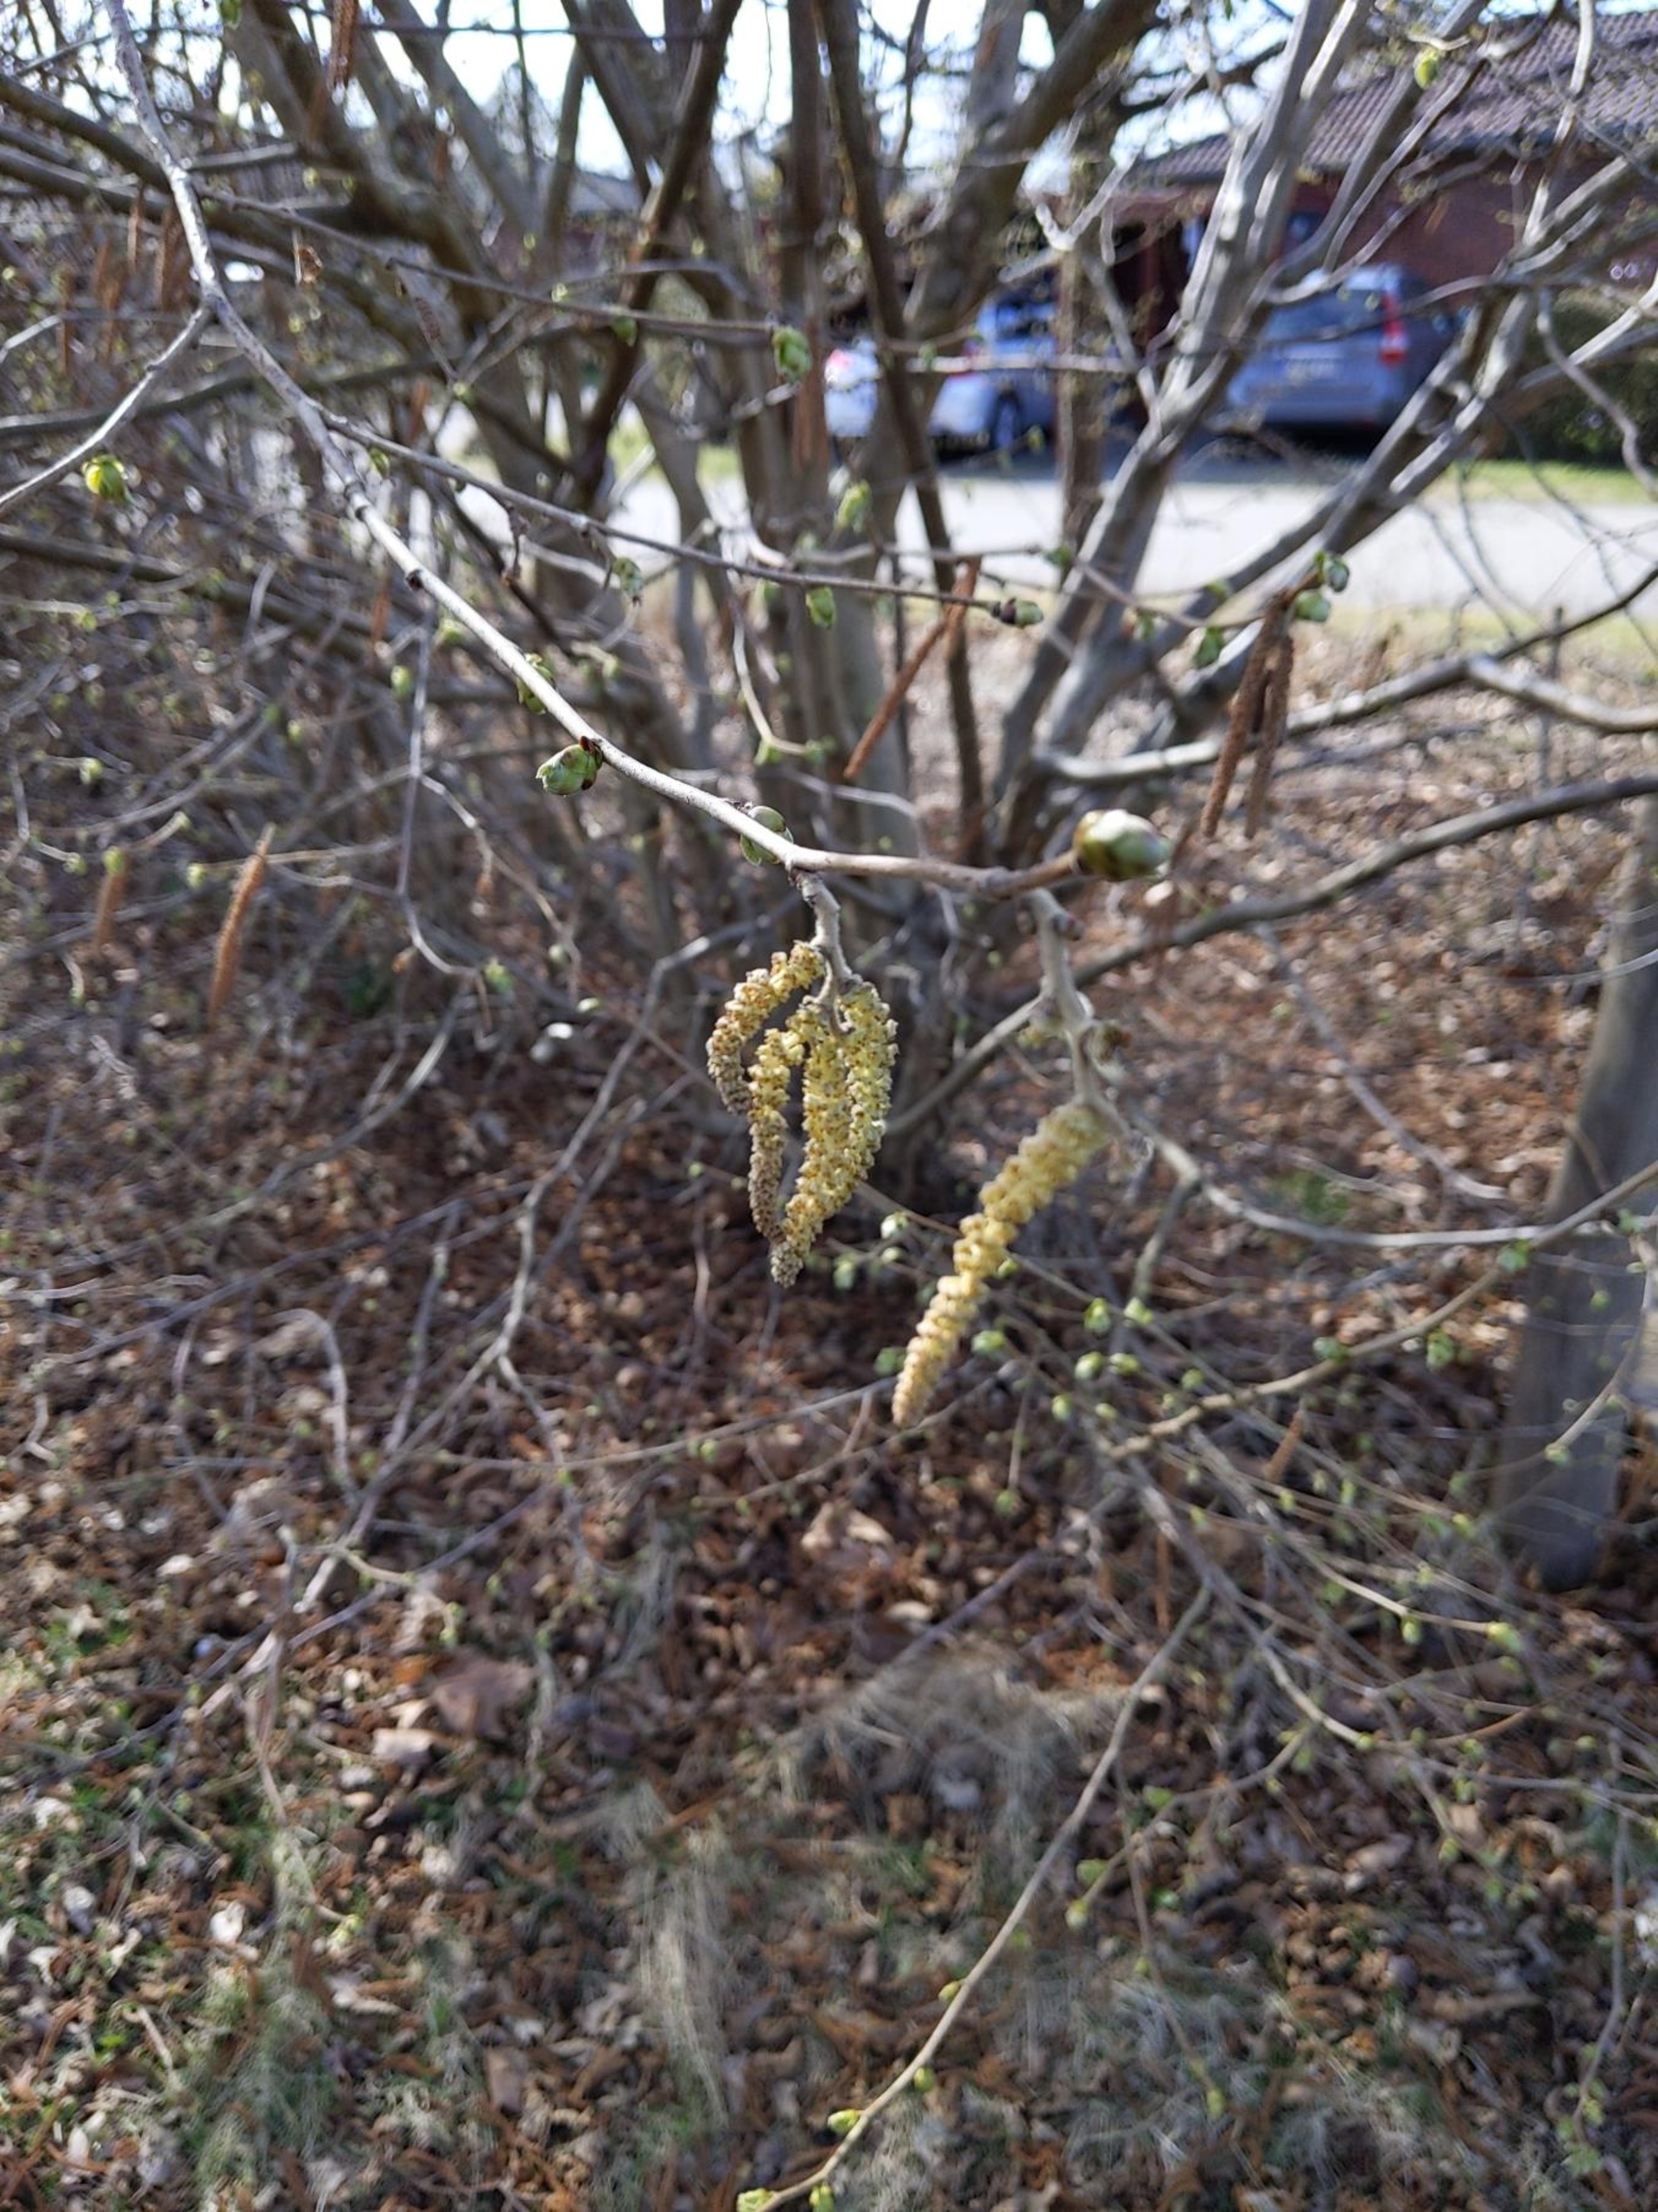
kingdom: Plantae
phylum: Tracheophyta
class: Magnoliopsida
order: Fagales
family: Betulaceae
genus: Corylus
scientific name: Corylus avellana
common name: Hassel
